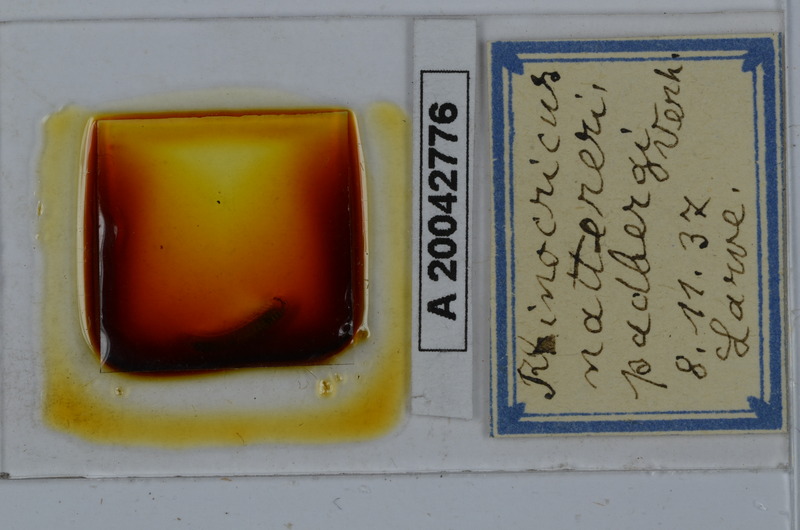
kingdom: Animalia
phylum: Arthropoda
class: Diplopoda
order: Spirobolida
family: Rhinocricidae
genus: Rhinocricus
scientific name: Rhinocricus padbergi
